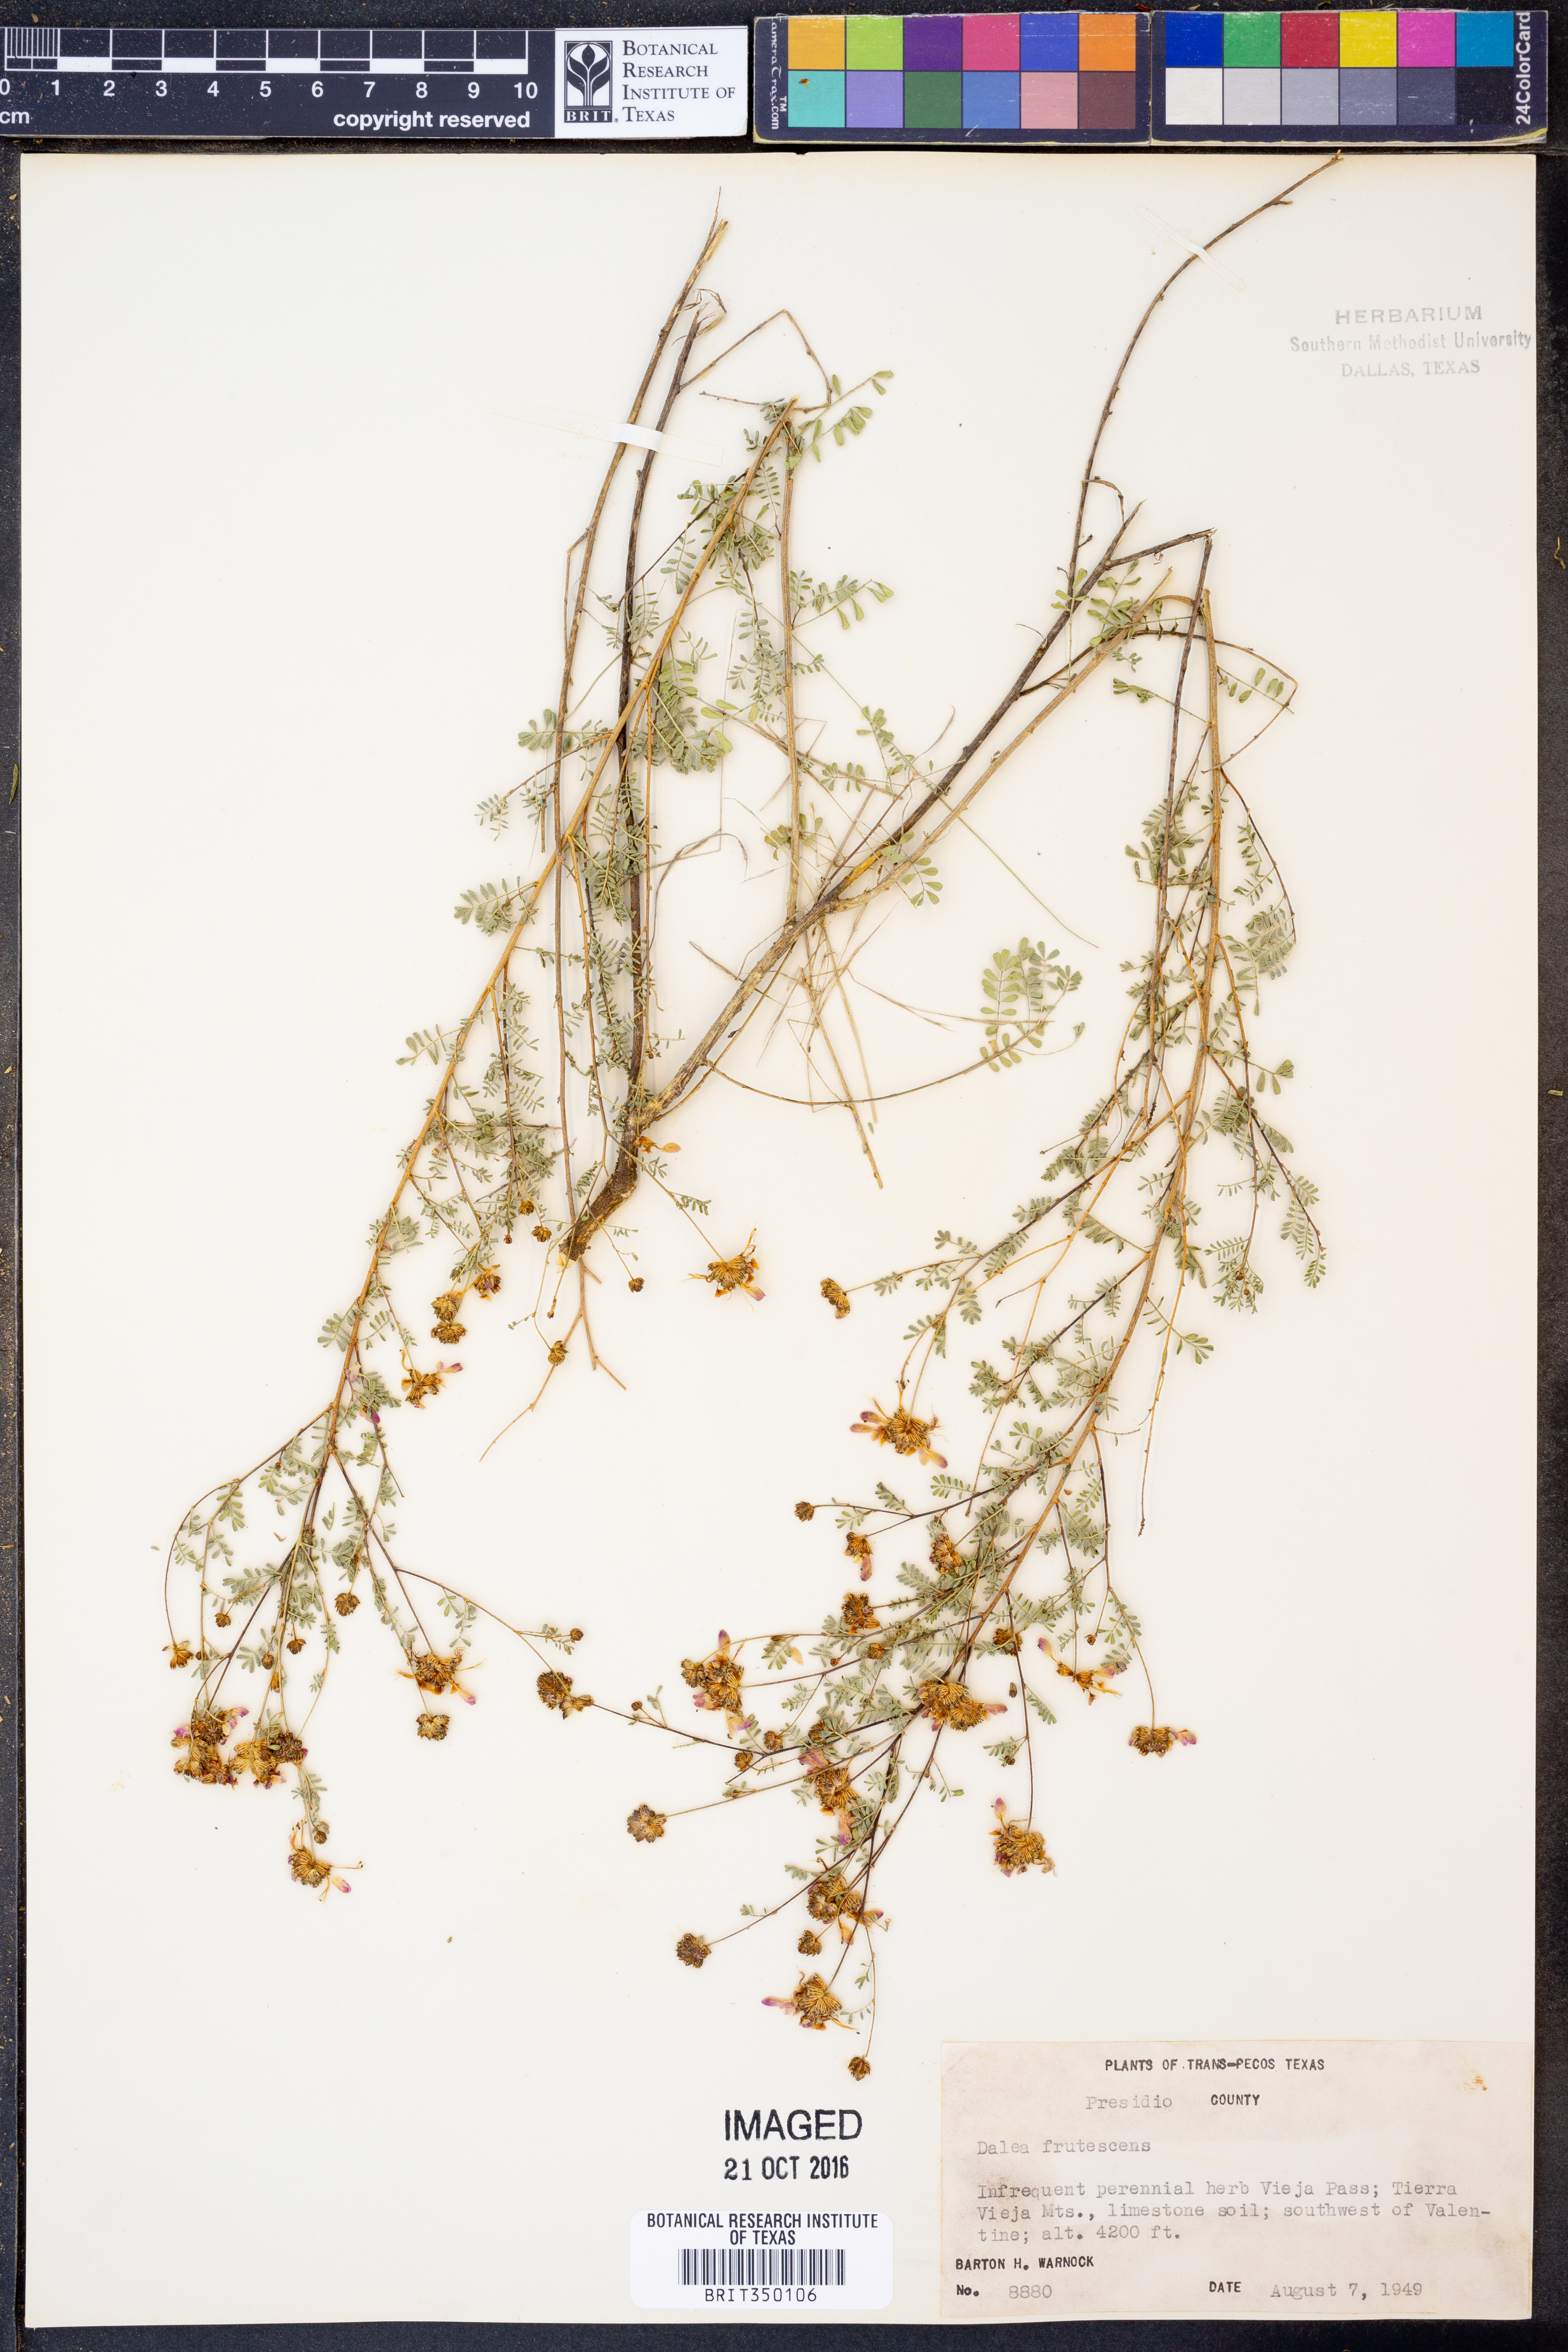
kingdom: Plantae
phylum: Tracheophyta
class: Magnoliopsida
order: Fabales
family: Fabaceae
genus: Dalea
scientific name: Dalea frutescens
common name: Black dalea
